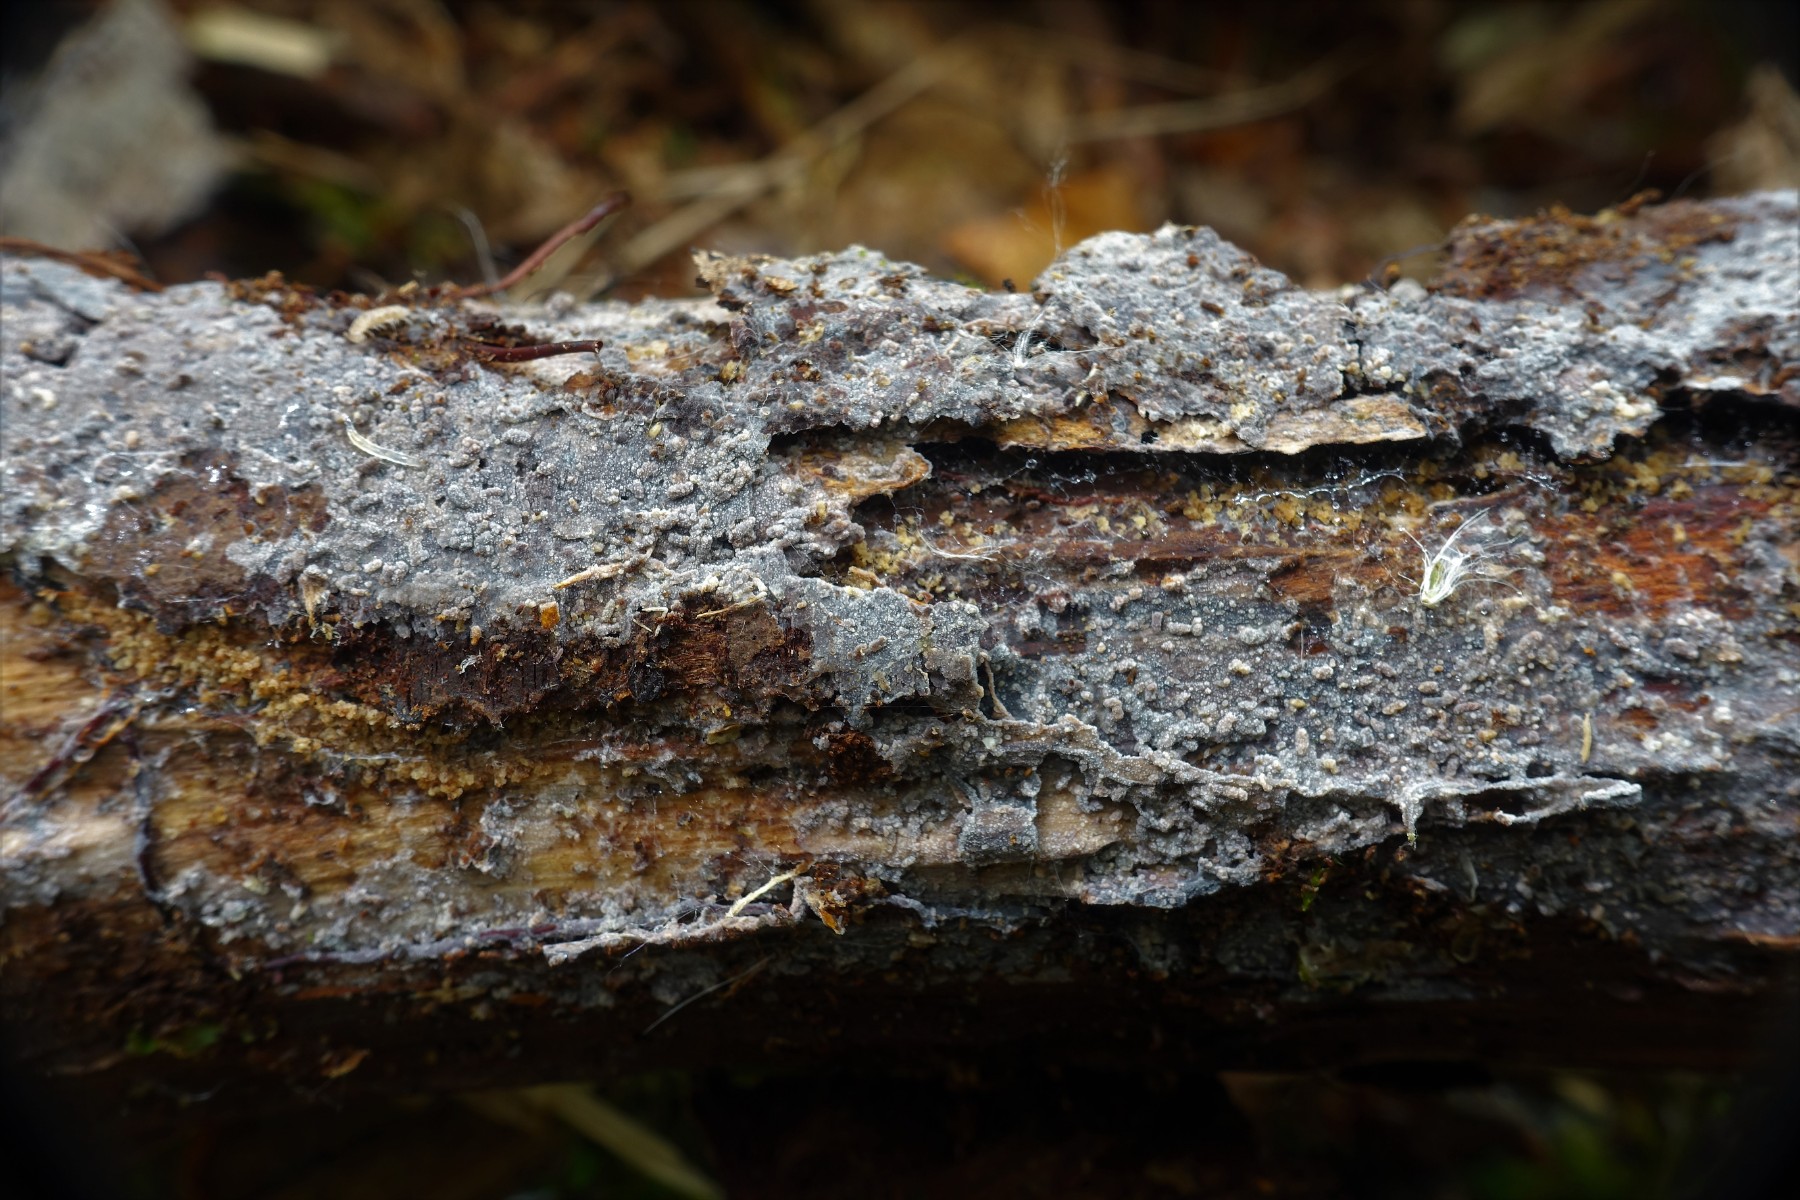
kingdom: Fungi
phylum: Basidiomycota
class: Agaricomycetes
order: Polyporales
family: Meruliaceae
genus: Scopuloides
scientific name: Scopuloides rimosa
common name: dughinde
